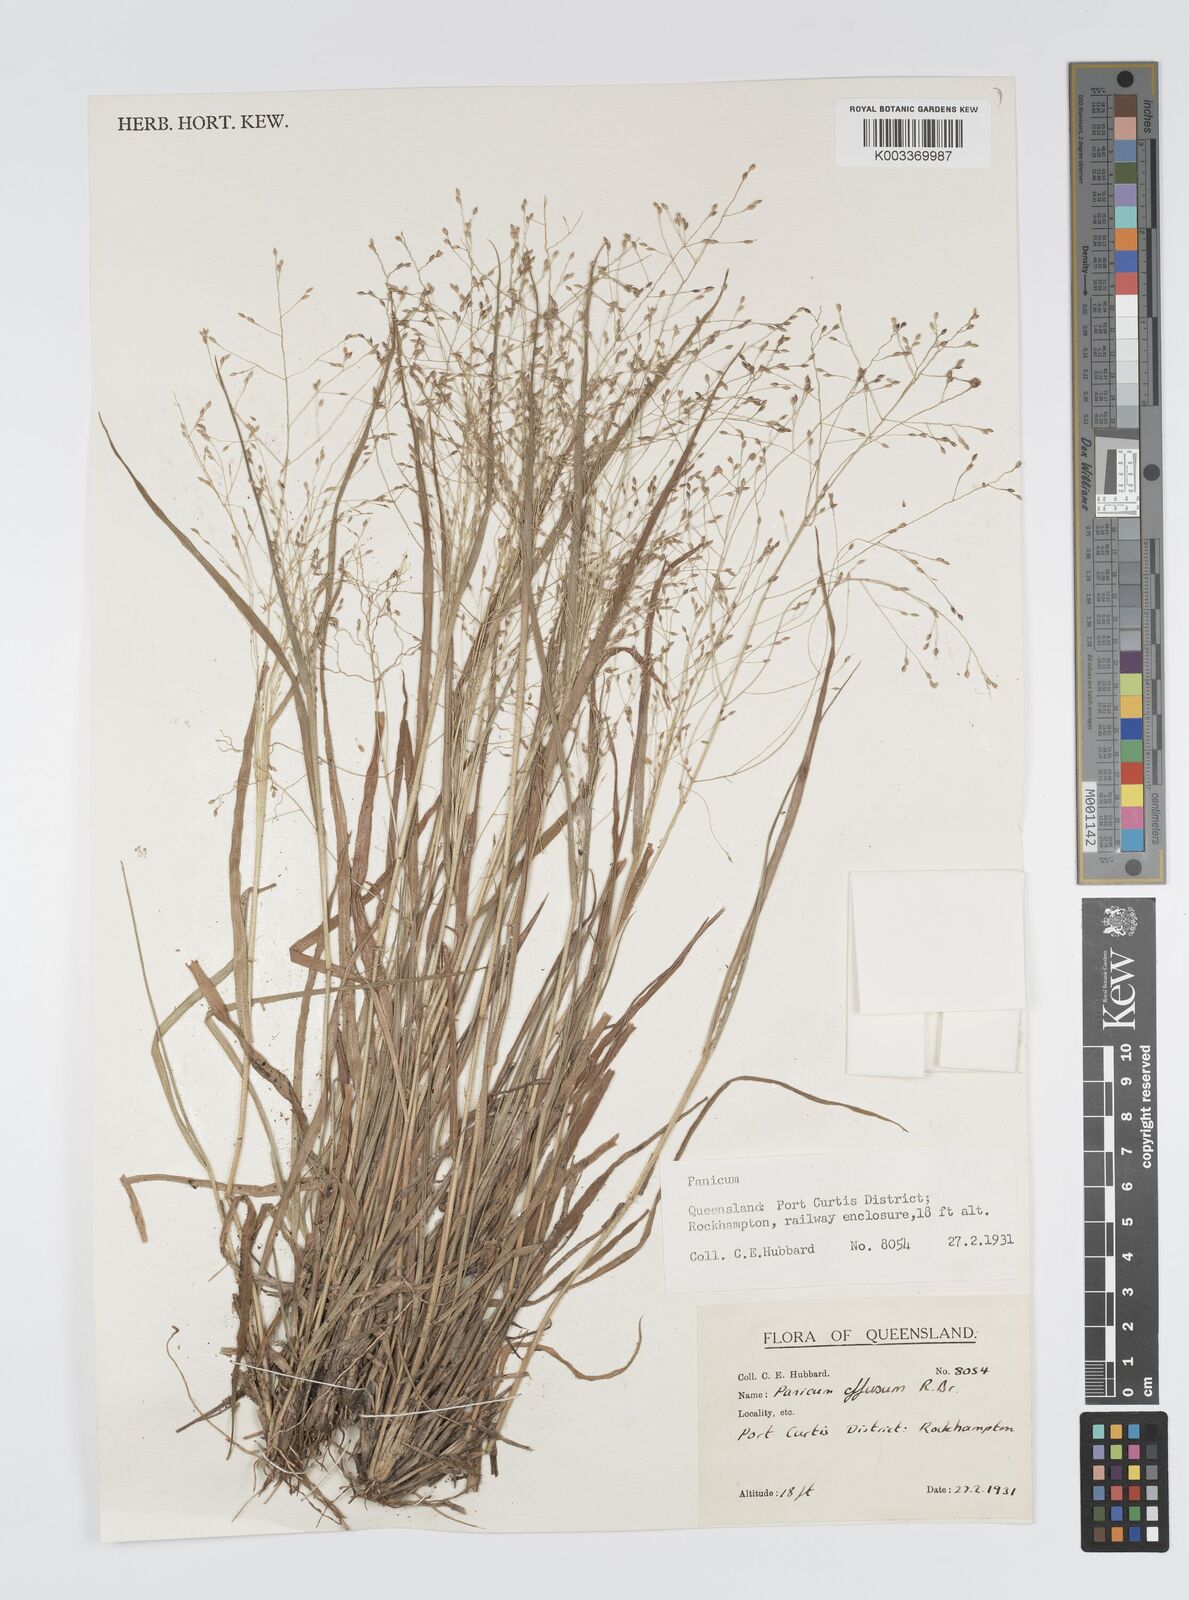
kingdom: Plantae
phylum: Tracheophyta
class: Liliopsida
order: Poales
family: Poaceae
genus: Panicum
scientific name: Panicum effusum
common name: Hairy panic grass
